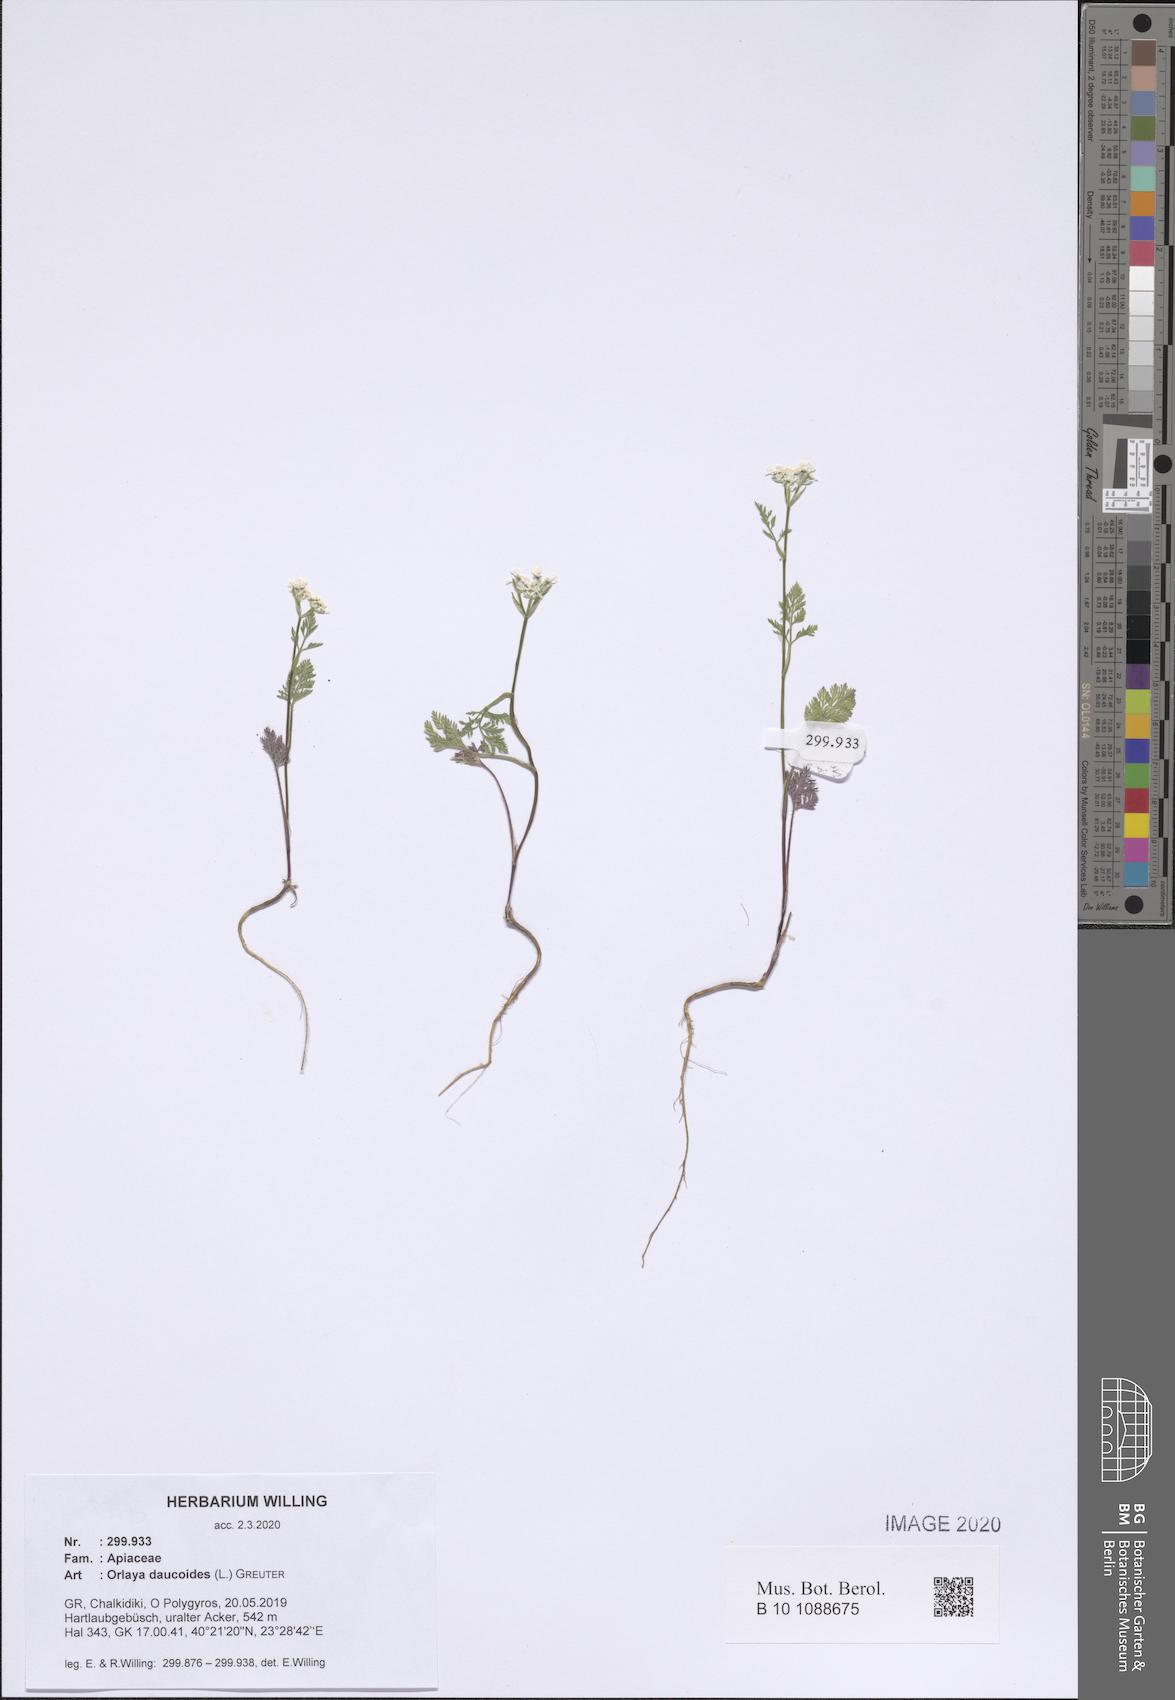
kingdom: Plantae
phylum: Tracheophyta
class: Magnoliopsida
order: Apiales
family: Apiaceae
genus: Orlaya
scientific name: Orlaya daucoides
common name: Flat-fruit orlaya
